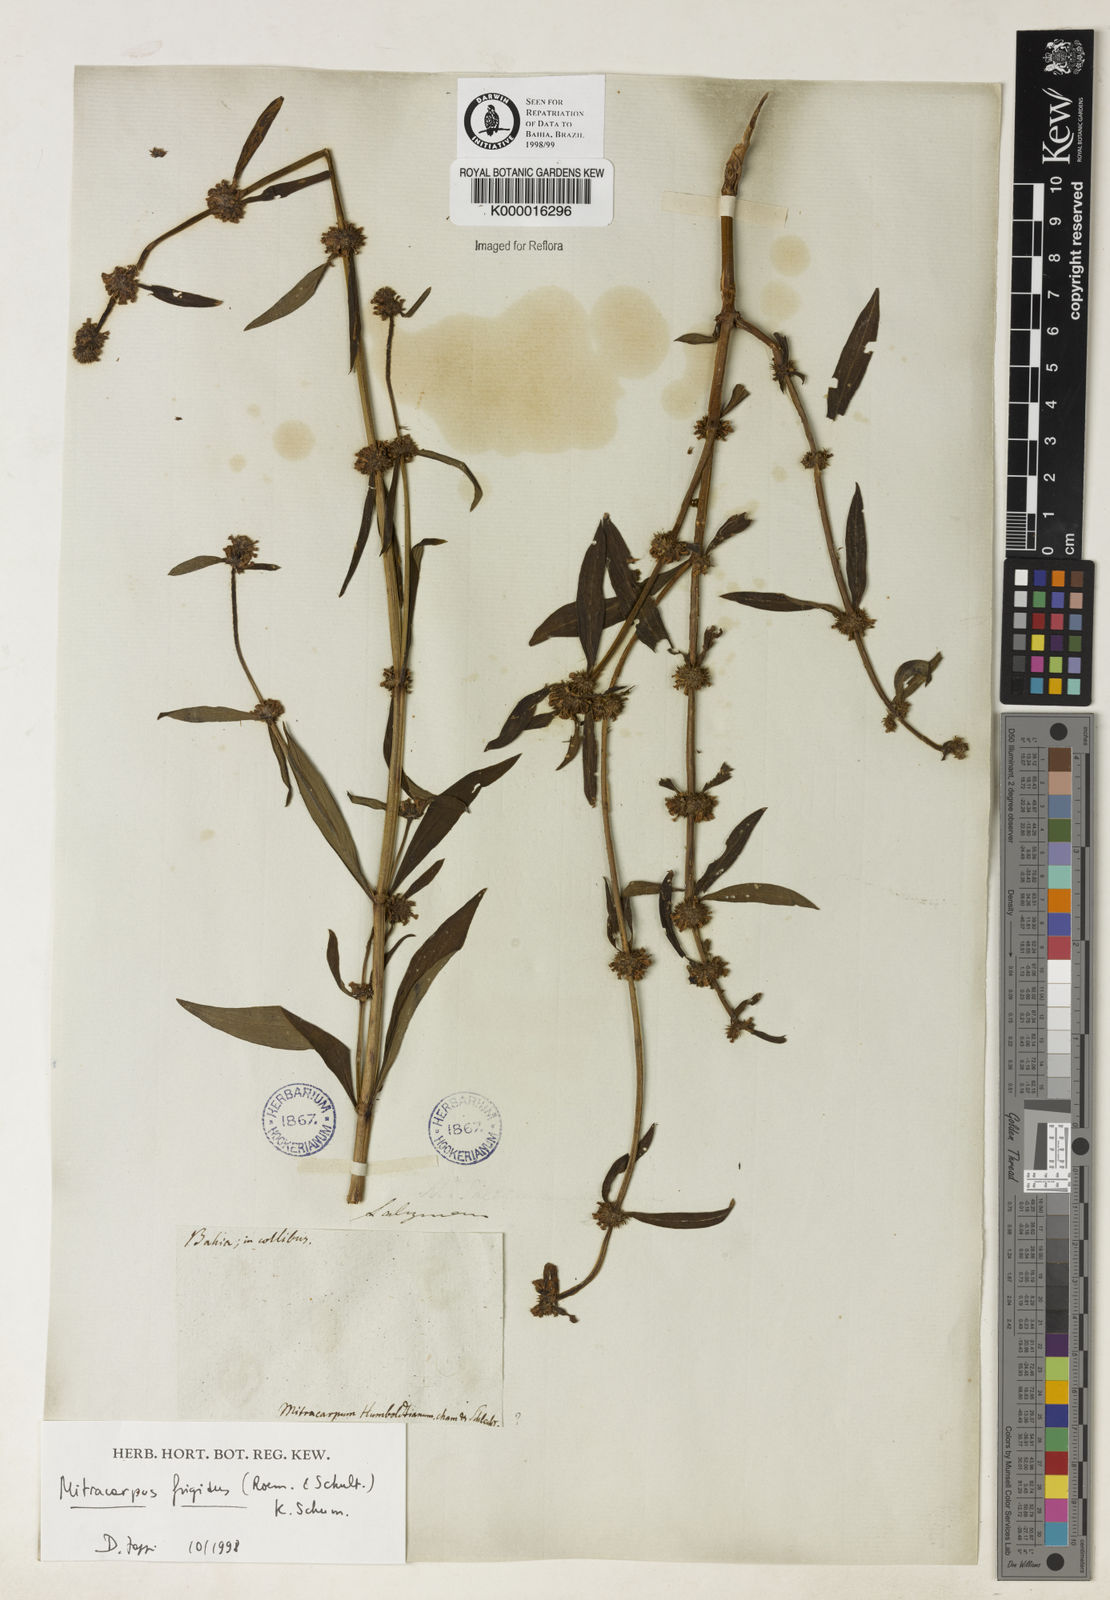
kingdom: Plantae
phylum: Tracheophyta
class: Magnoliopsida
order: Gentianales
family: Rubiaceae
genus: Mitracarpus
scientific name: Mitracarpus frigidus
